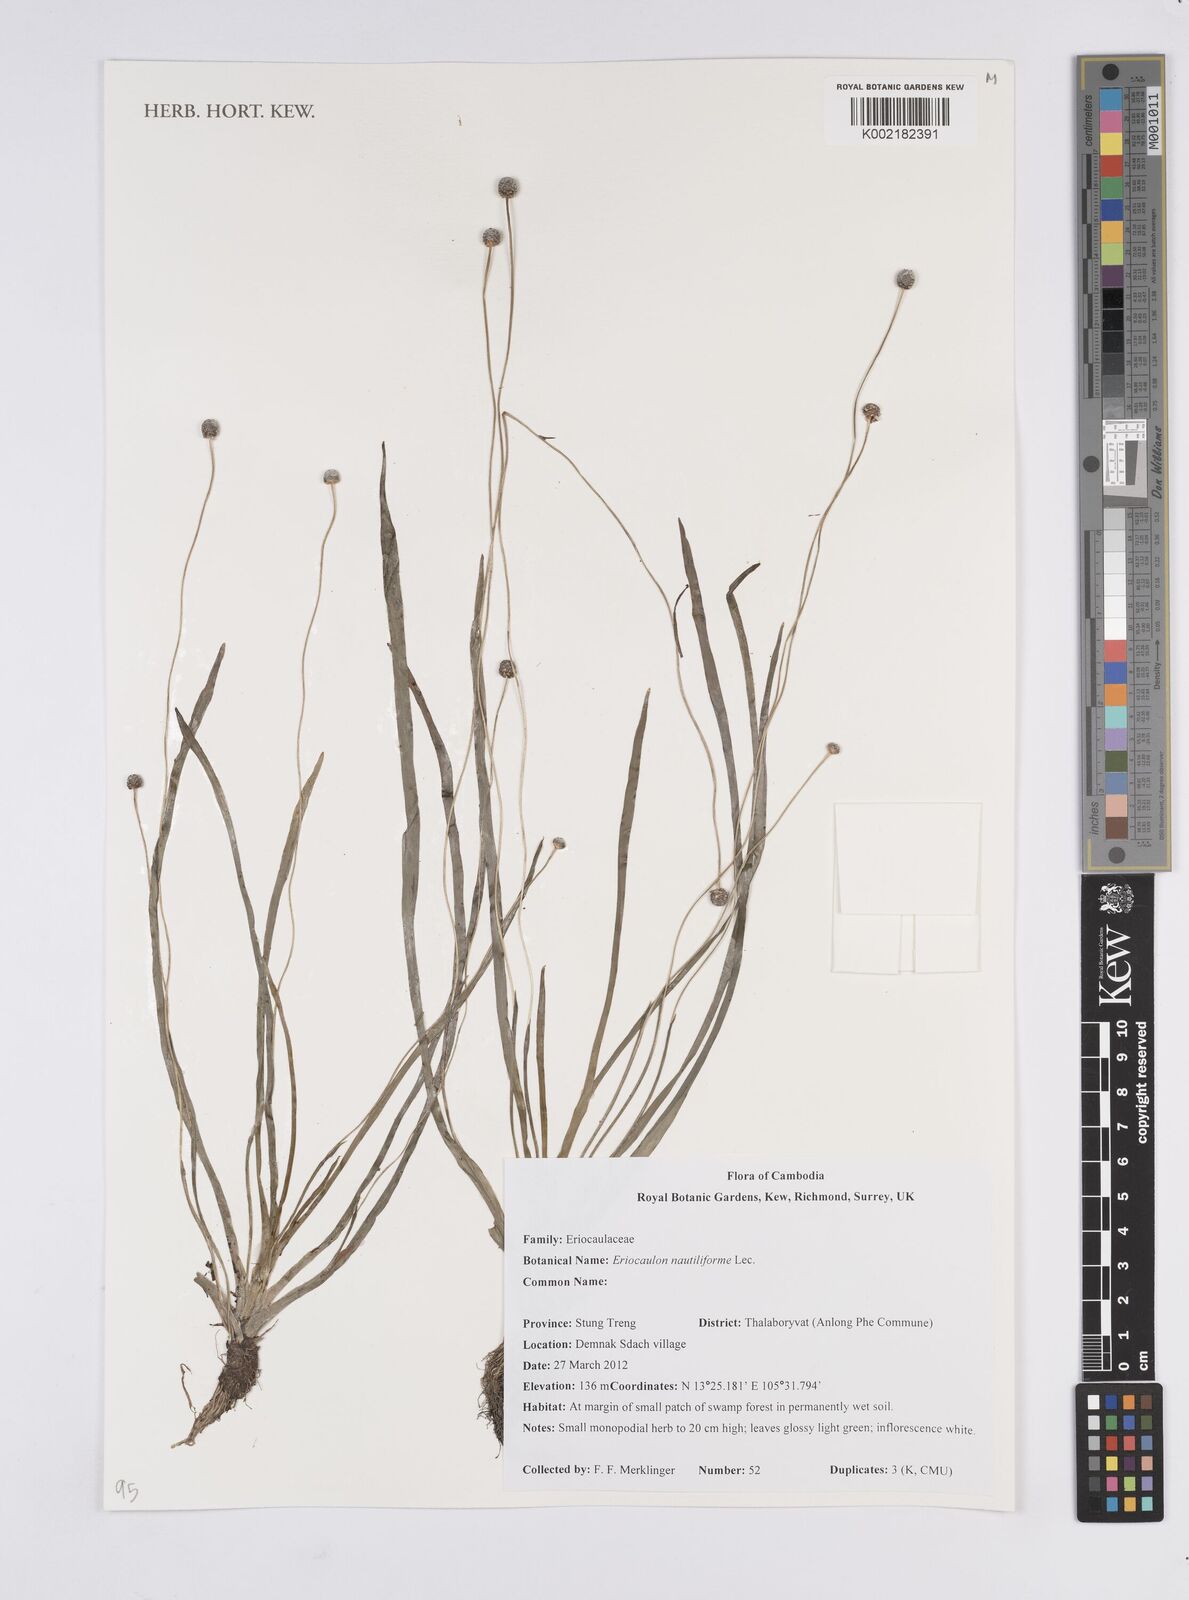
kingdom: Plantae
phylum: Tracheophyta
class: Liliopsida
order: Poales
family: Eriocaulaceae
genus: Eriocaulon
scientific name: Eriocaulon nautiliforme
